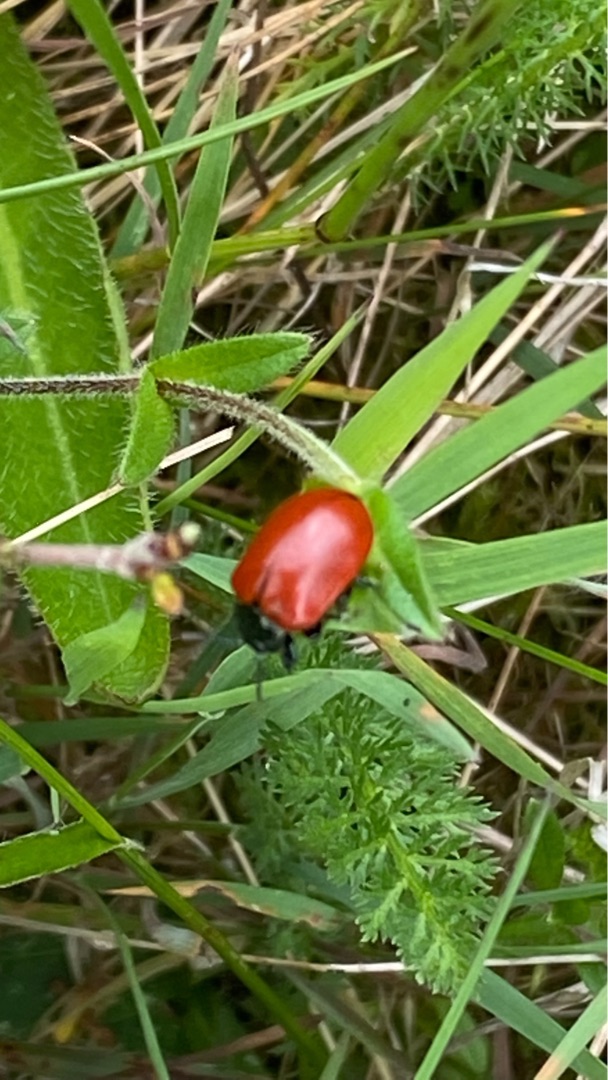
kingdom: Animalia
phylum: Arthropoda
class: Insecta
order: Coleoptera
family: Chrysomelidae
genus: Chrysomela
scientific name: Chrysomela populi
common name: Poppelbladbille
